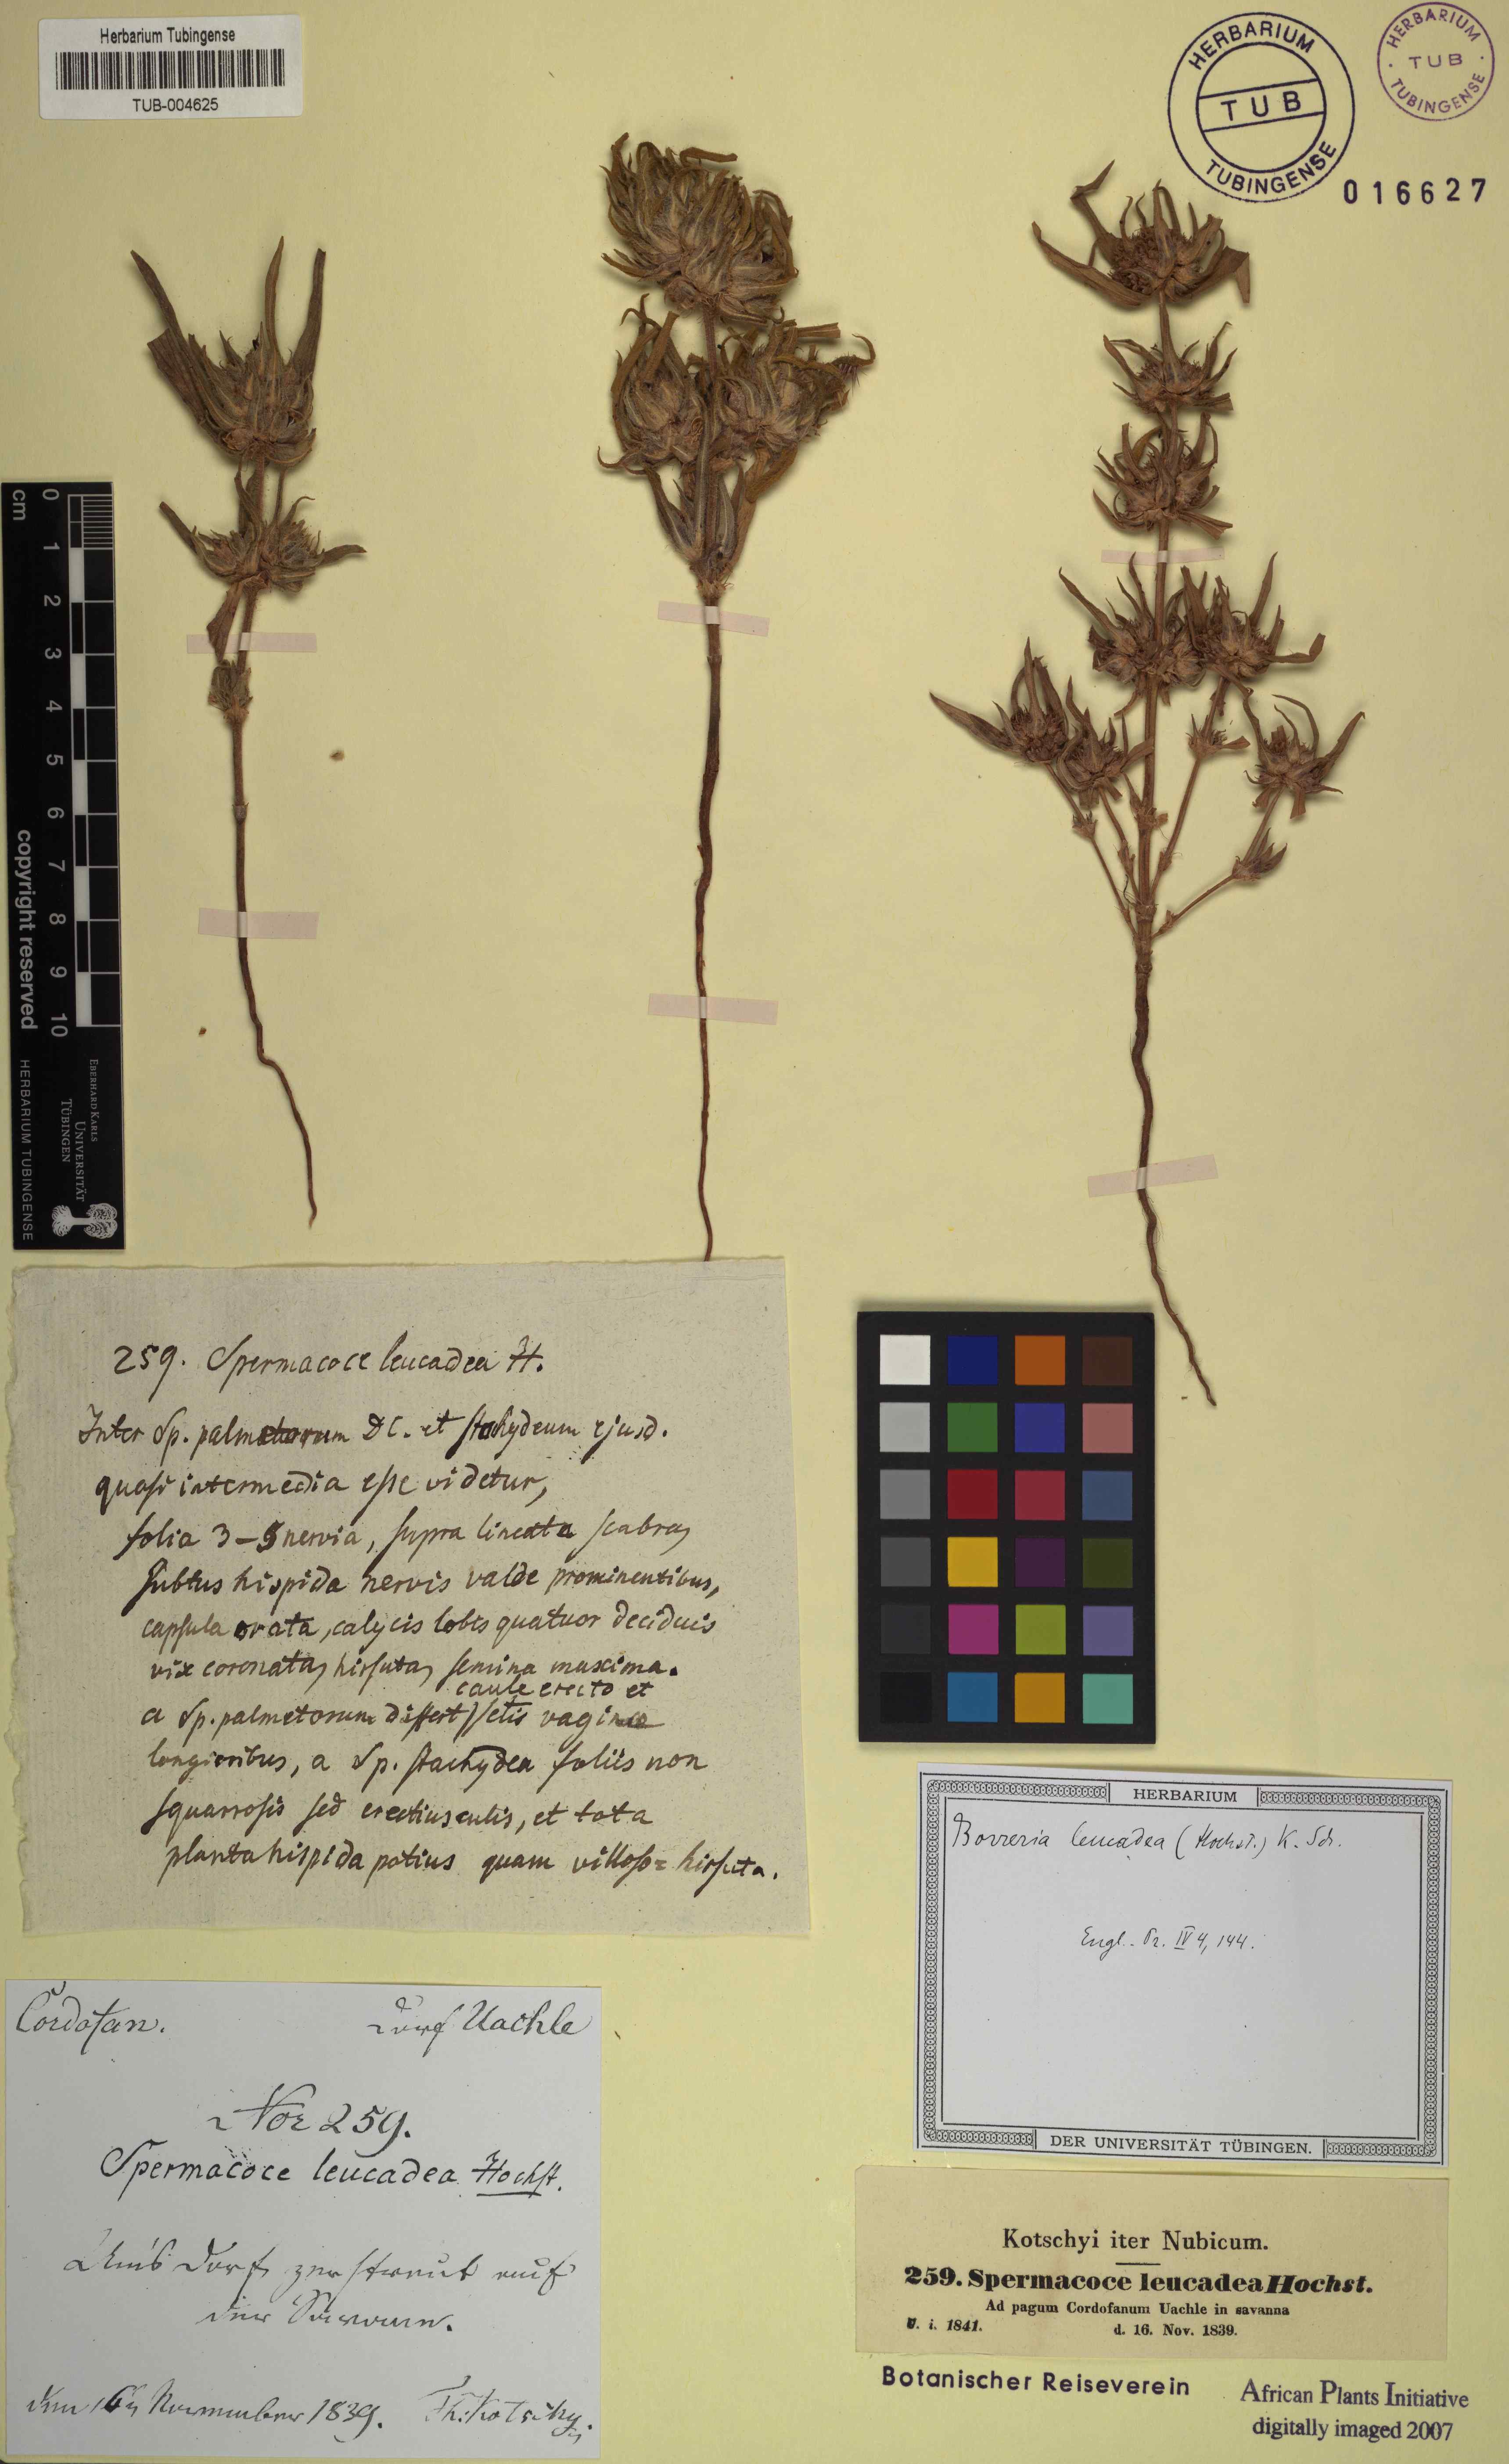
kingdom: Plantae
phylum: Tracheophyta
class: Magnoliopsida
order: Gentianales
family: Rubiaceae
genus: Spermacoce
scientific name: Spermacoce stachydea
